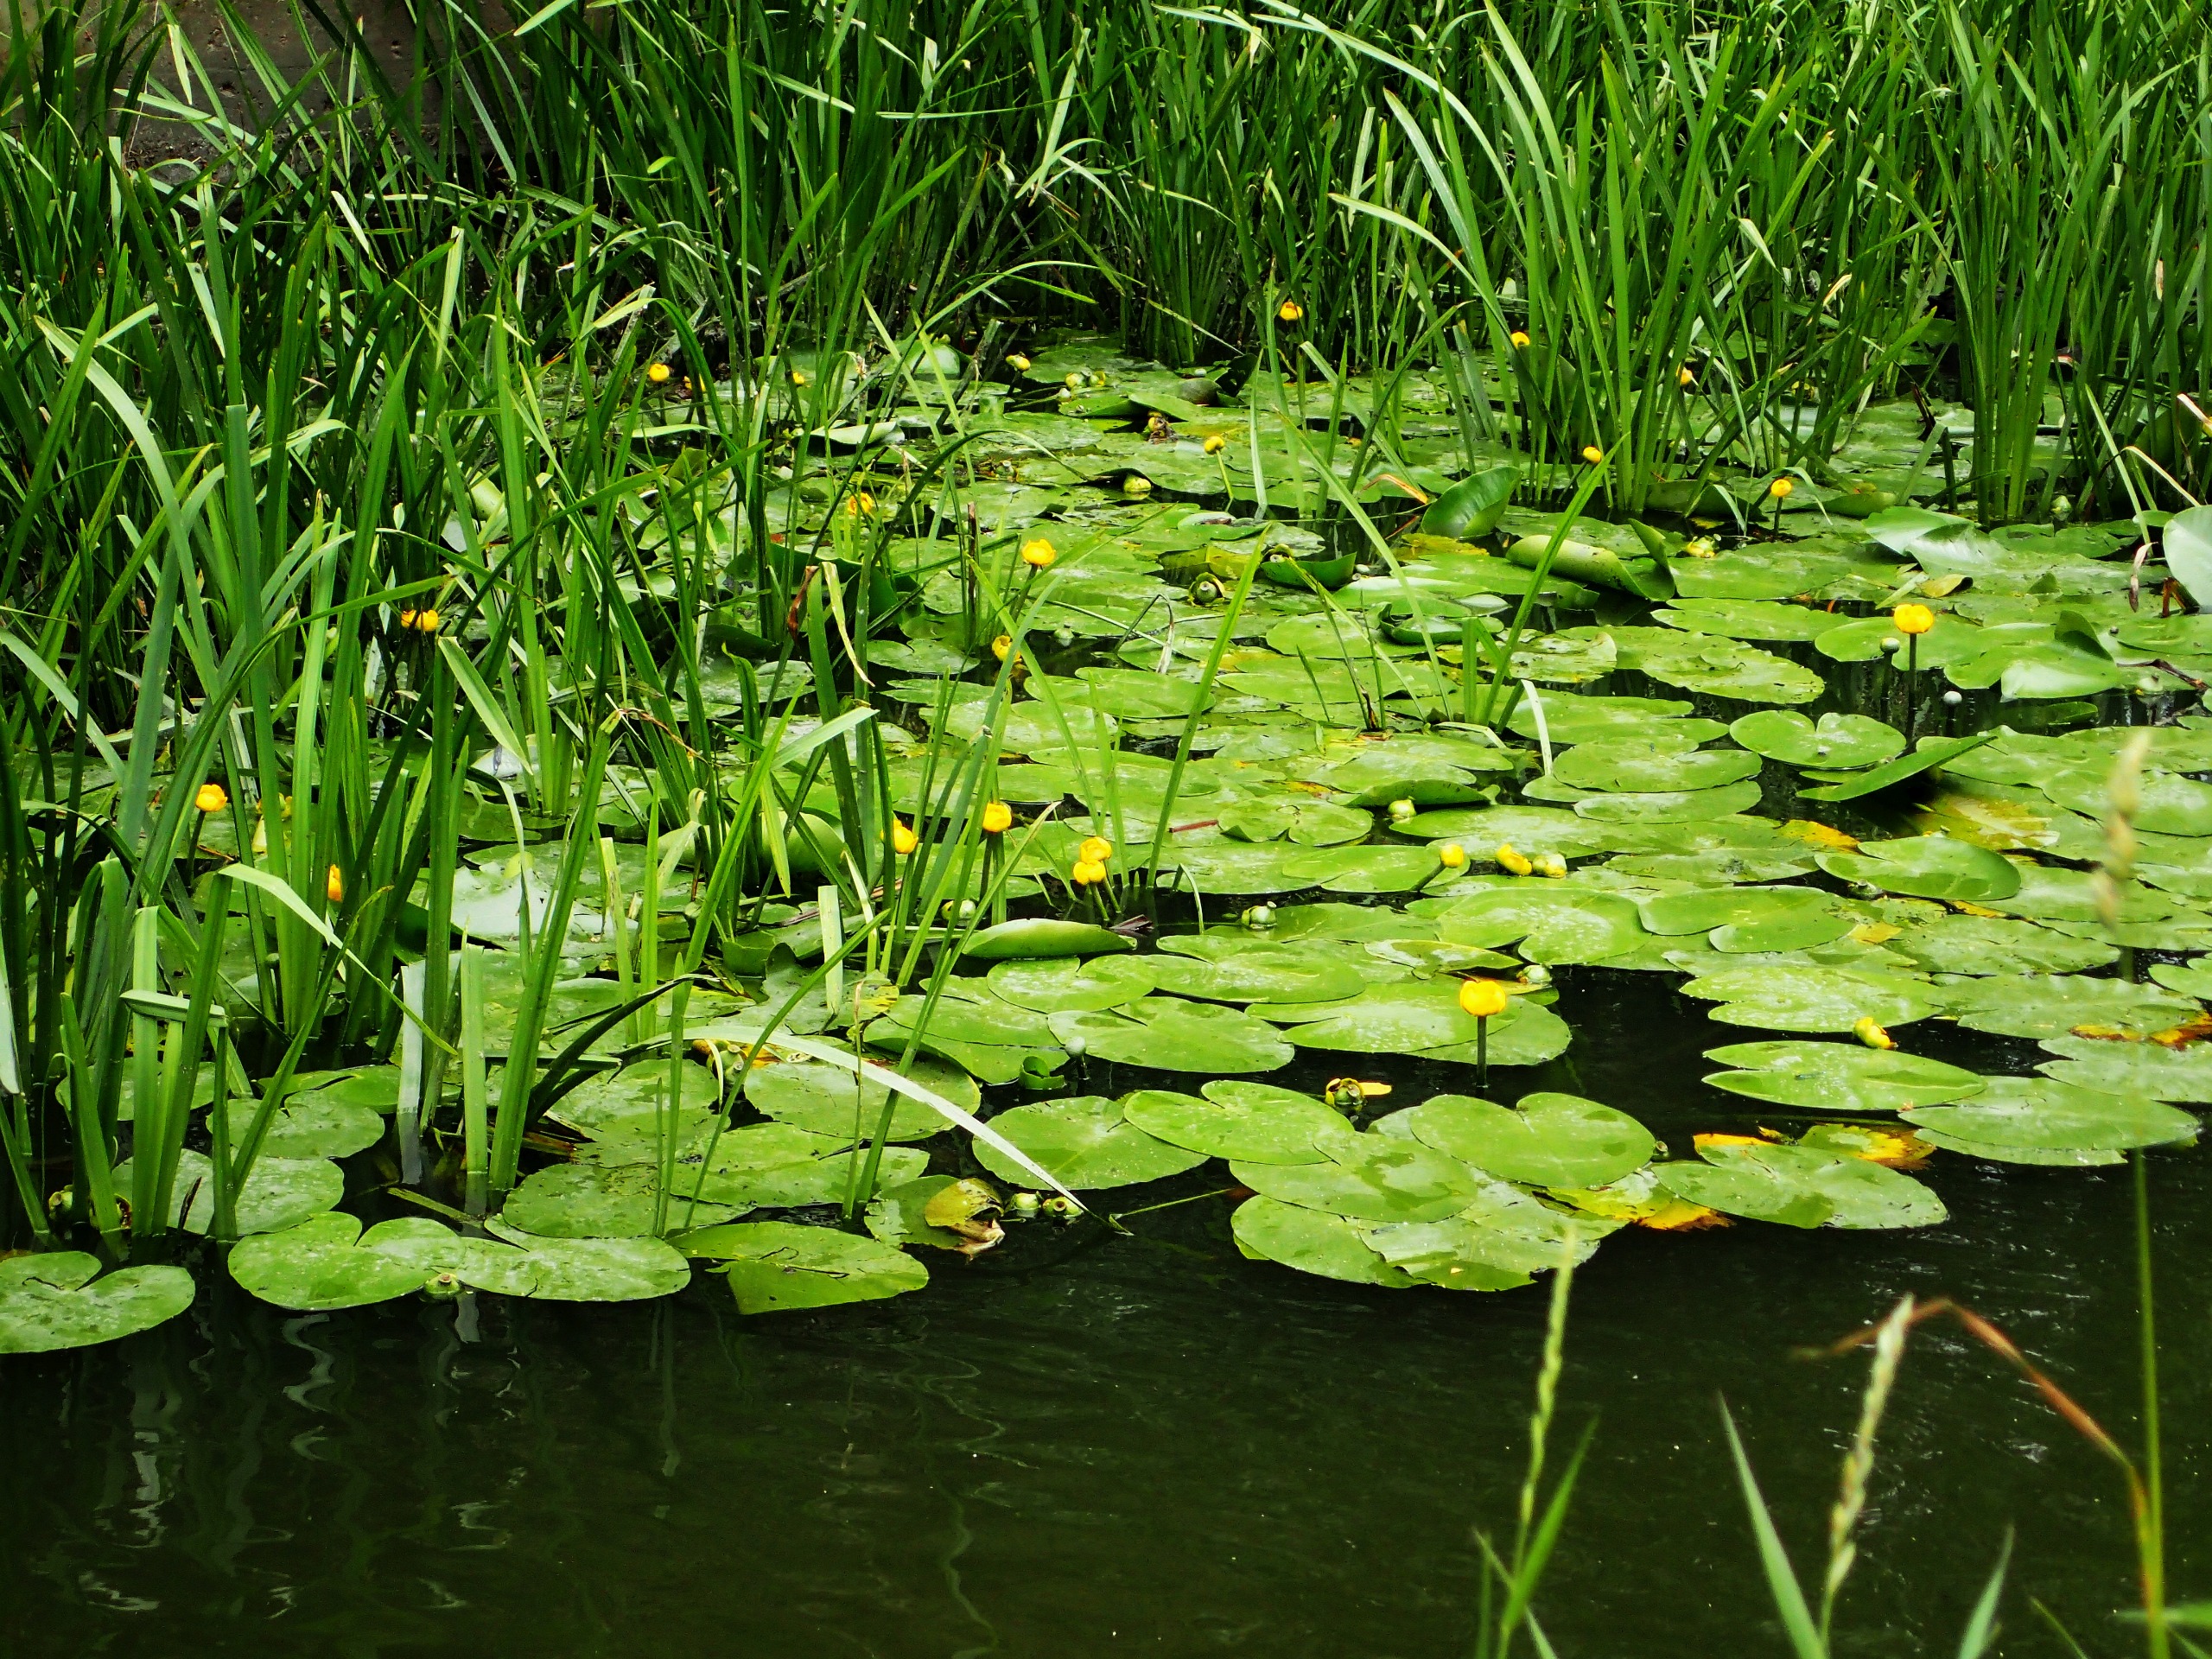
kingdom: Plantae
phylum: Tracheophyta
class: Magnoliopsida
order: Nymphaeales
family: Nymphaeaceae
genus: Nuphar
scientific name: Nuphar lutea
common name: Gul åkande
